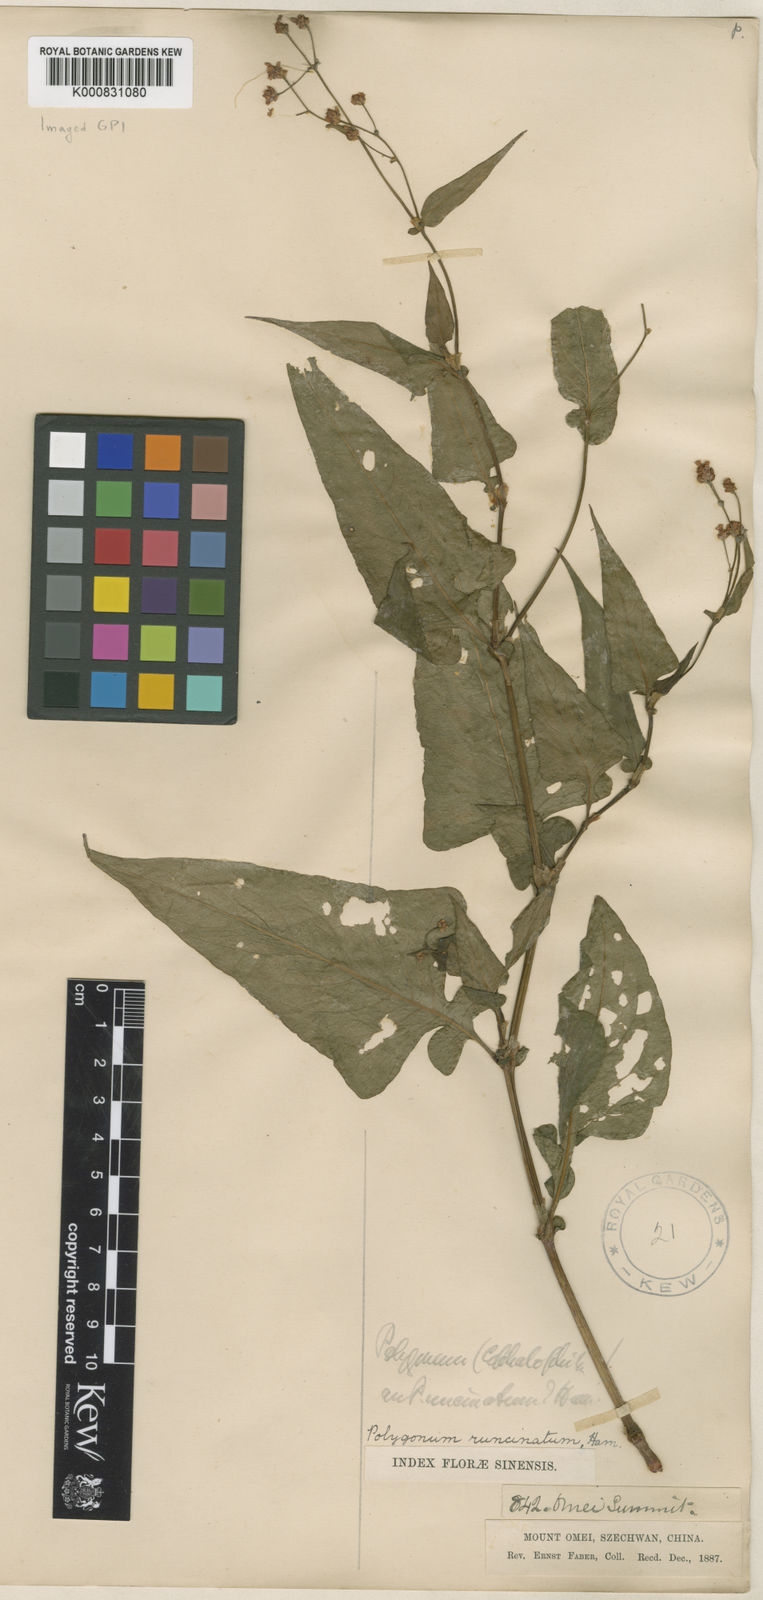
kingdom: Plantae
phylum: Tracheophyta
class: Magnoliopsida
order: Caryophyllales
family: Polygonaceae
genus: Persicaria
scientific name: Persicaria runcinata
